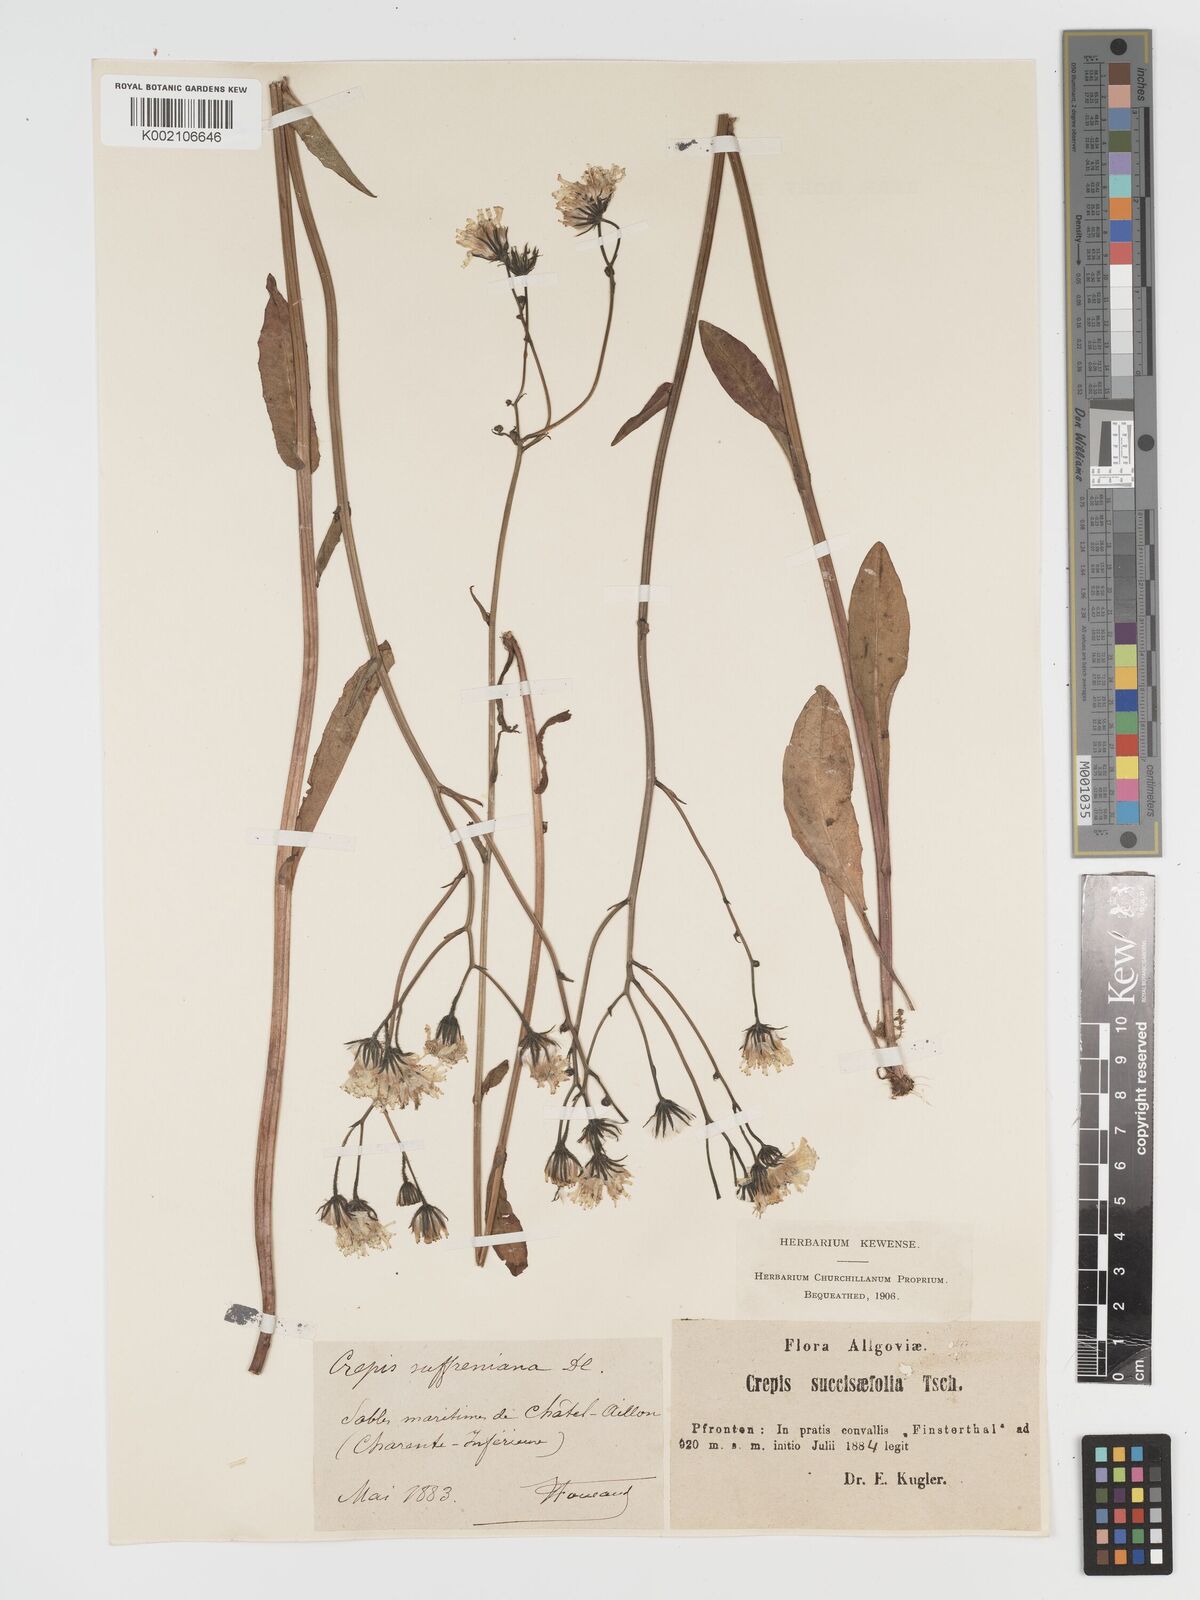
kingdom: Plantae
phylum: Tracheophyta
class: Magnoliopsida
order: Asterales
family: Asteraceae
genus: Crepis
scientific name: Crepis mollis
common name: Northern hawk's-beard
